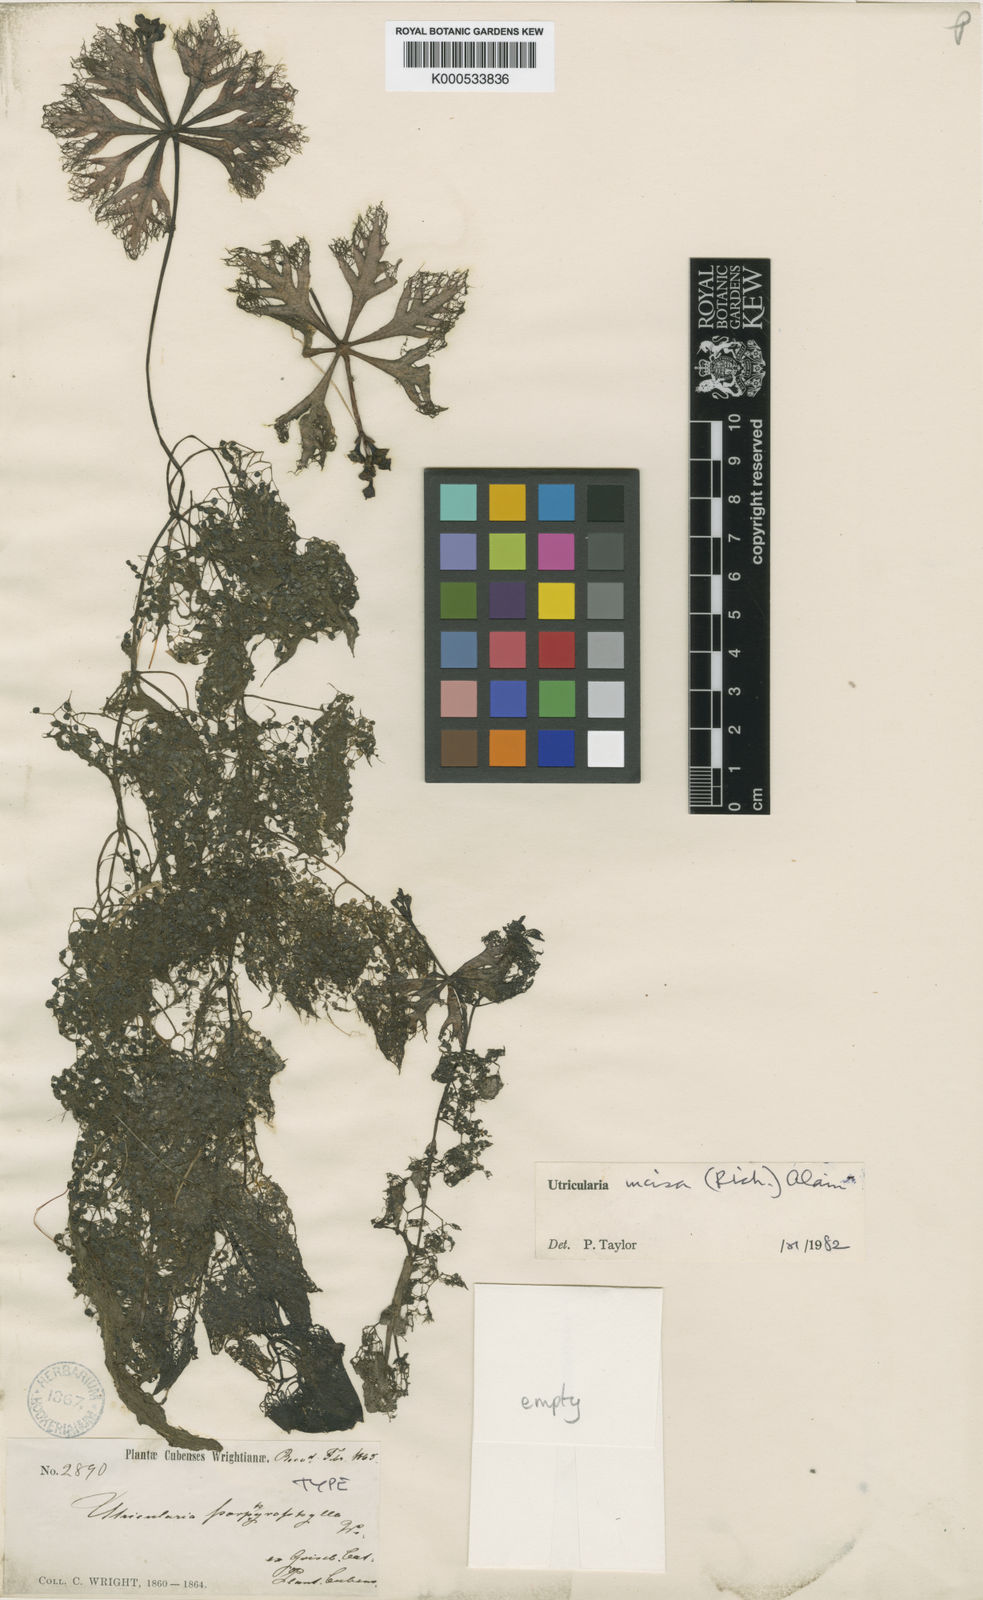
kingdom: Plantae
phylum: Tracheophyta
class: Magnoliopsida
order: Lamiales
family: Lentibulariaceae
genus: Utricularia
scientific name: Utricularia incisa
